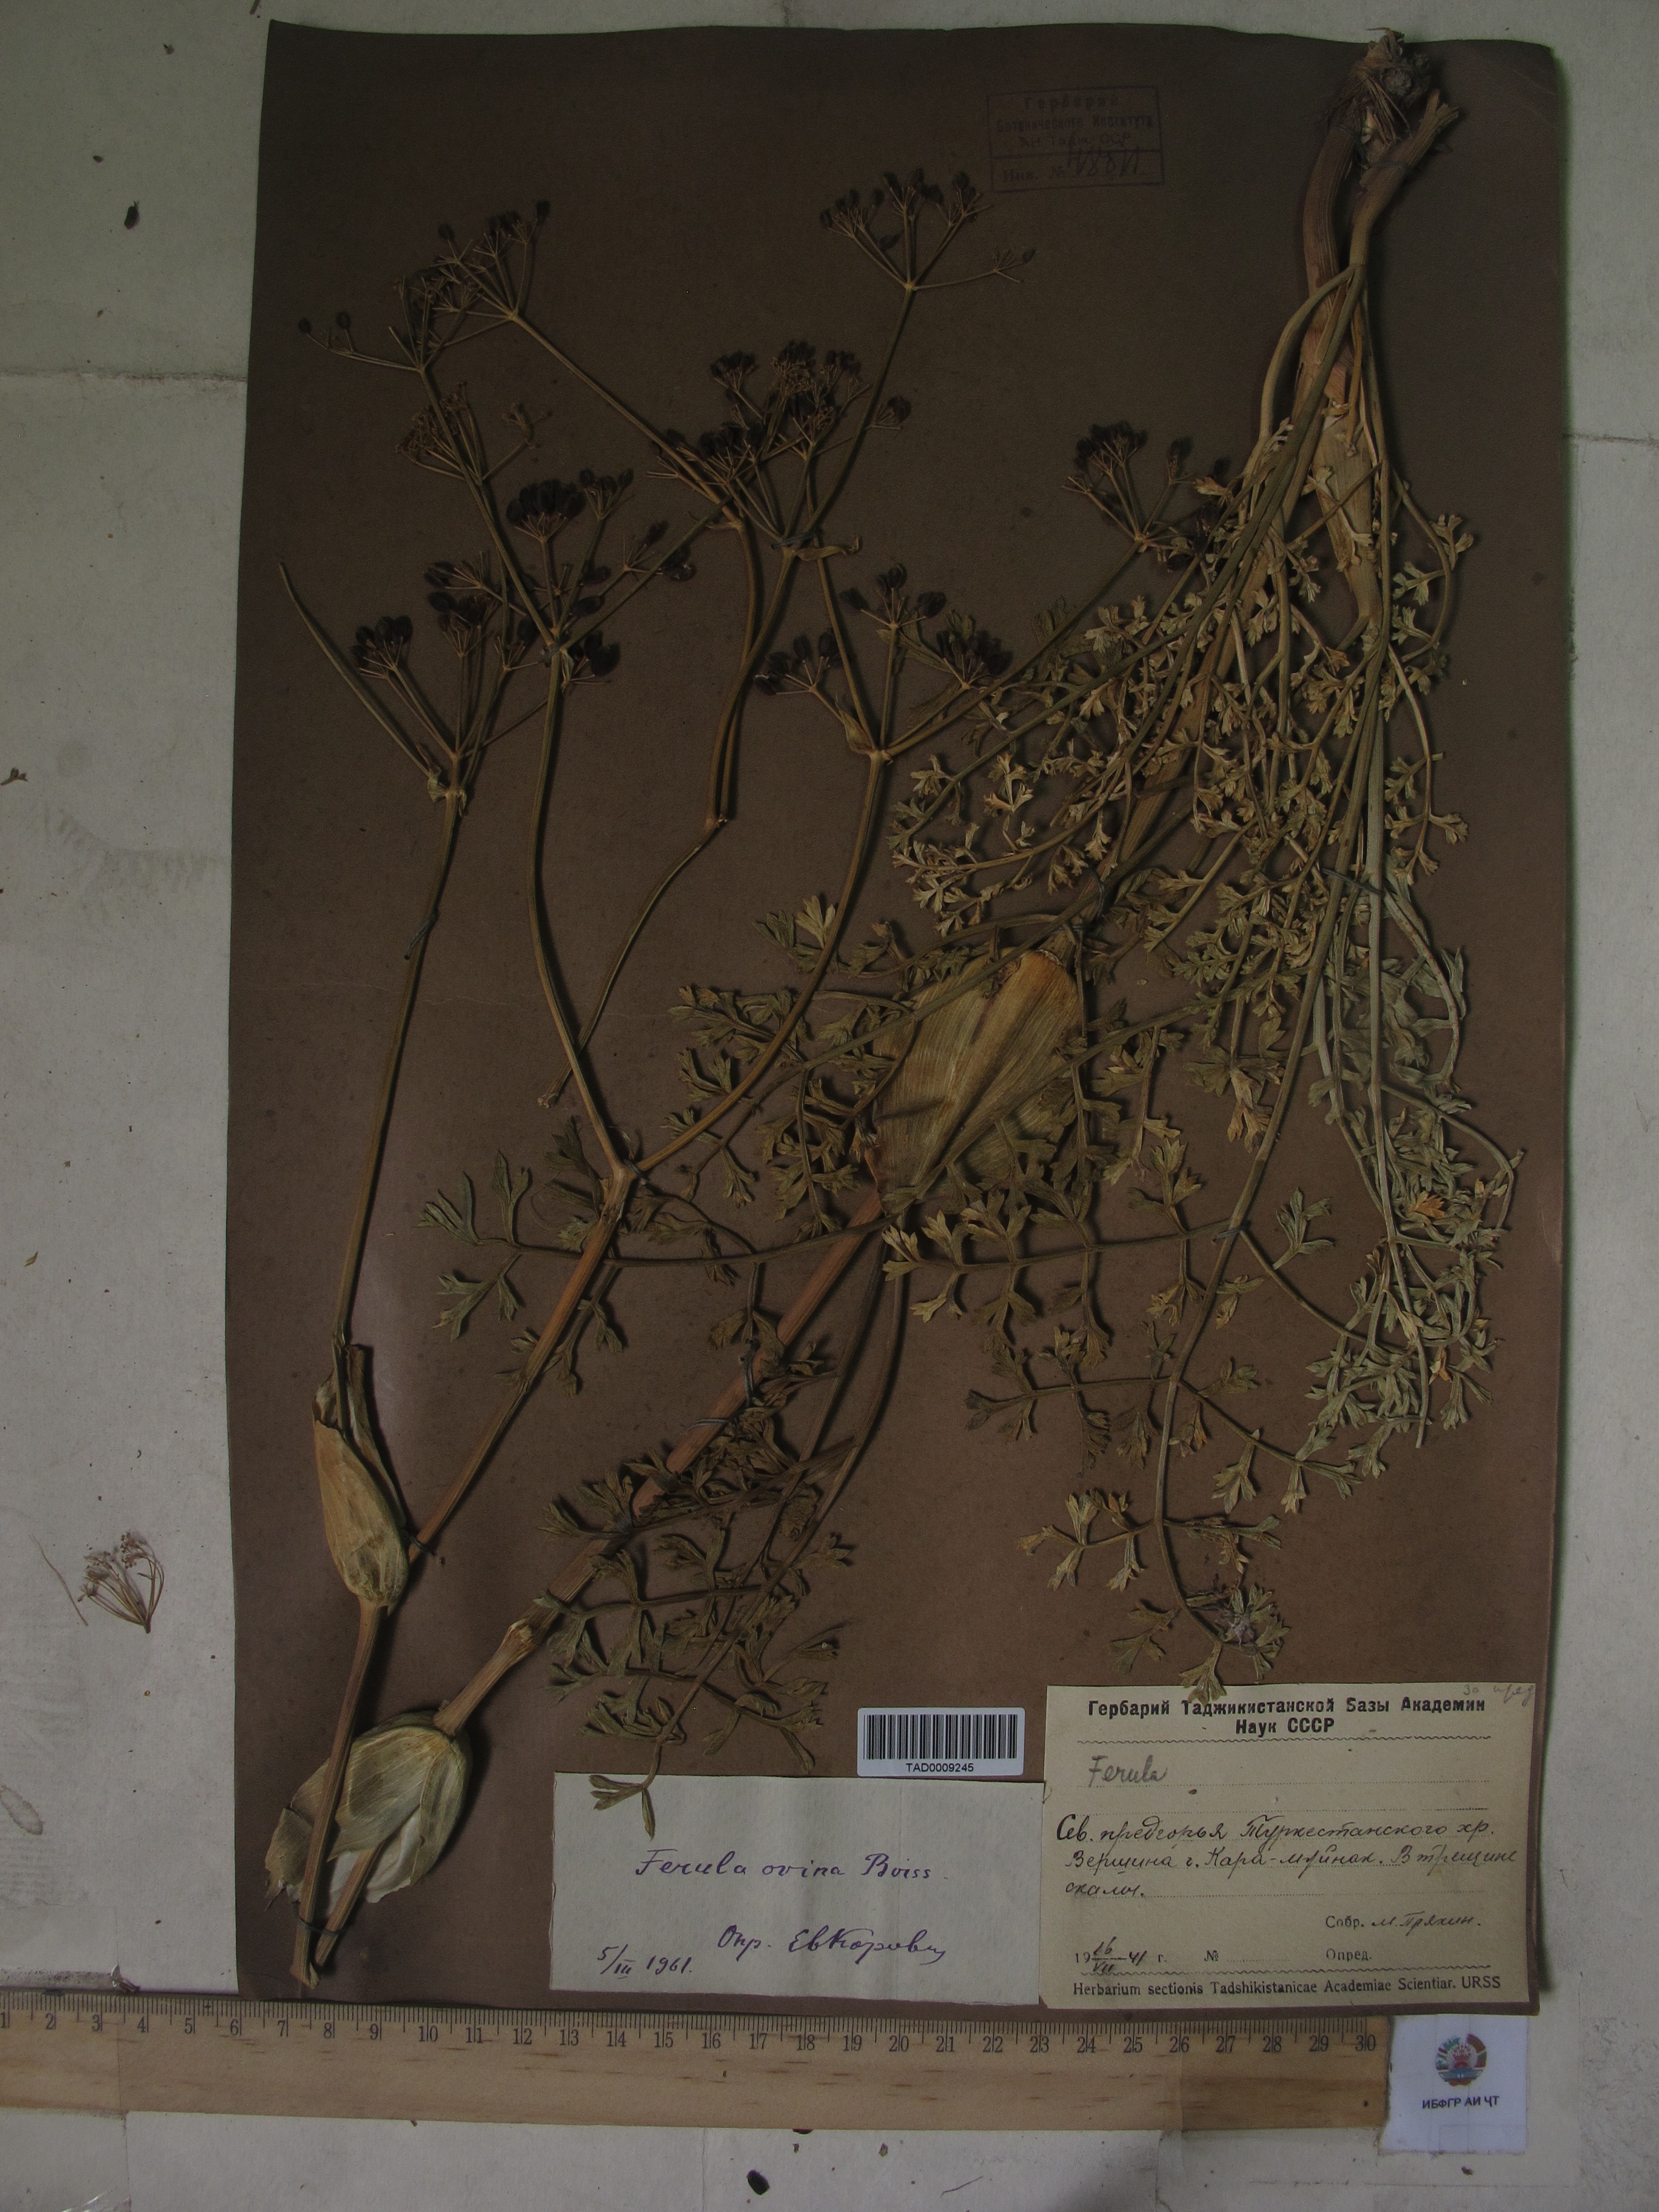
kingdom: Plantae
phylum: Tracheophyta
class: Magnoliopsida
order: Apiales
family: Apiaceae
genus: Ferula
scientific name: Ferula ovina
